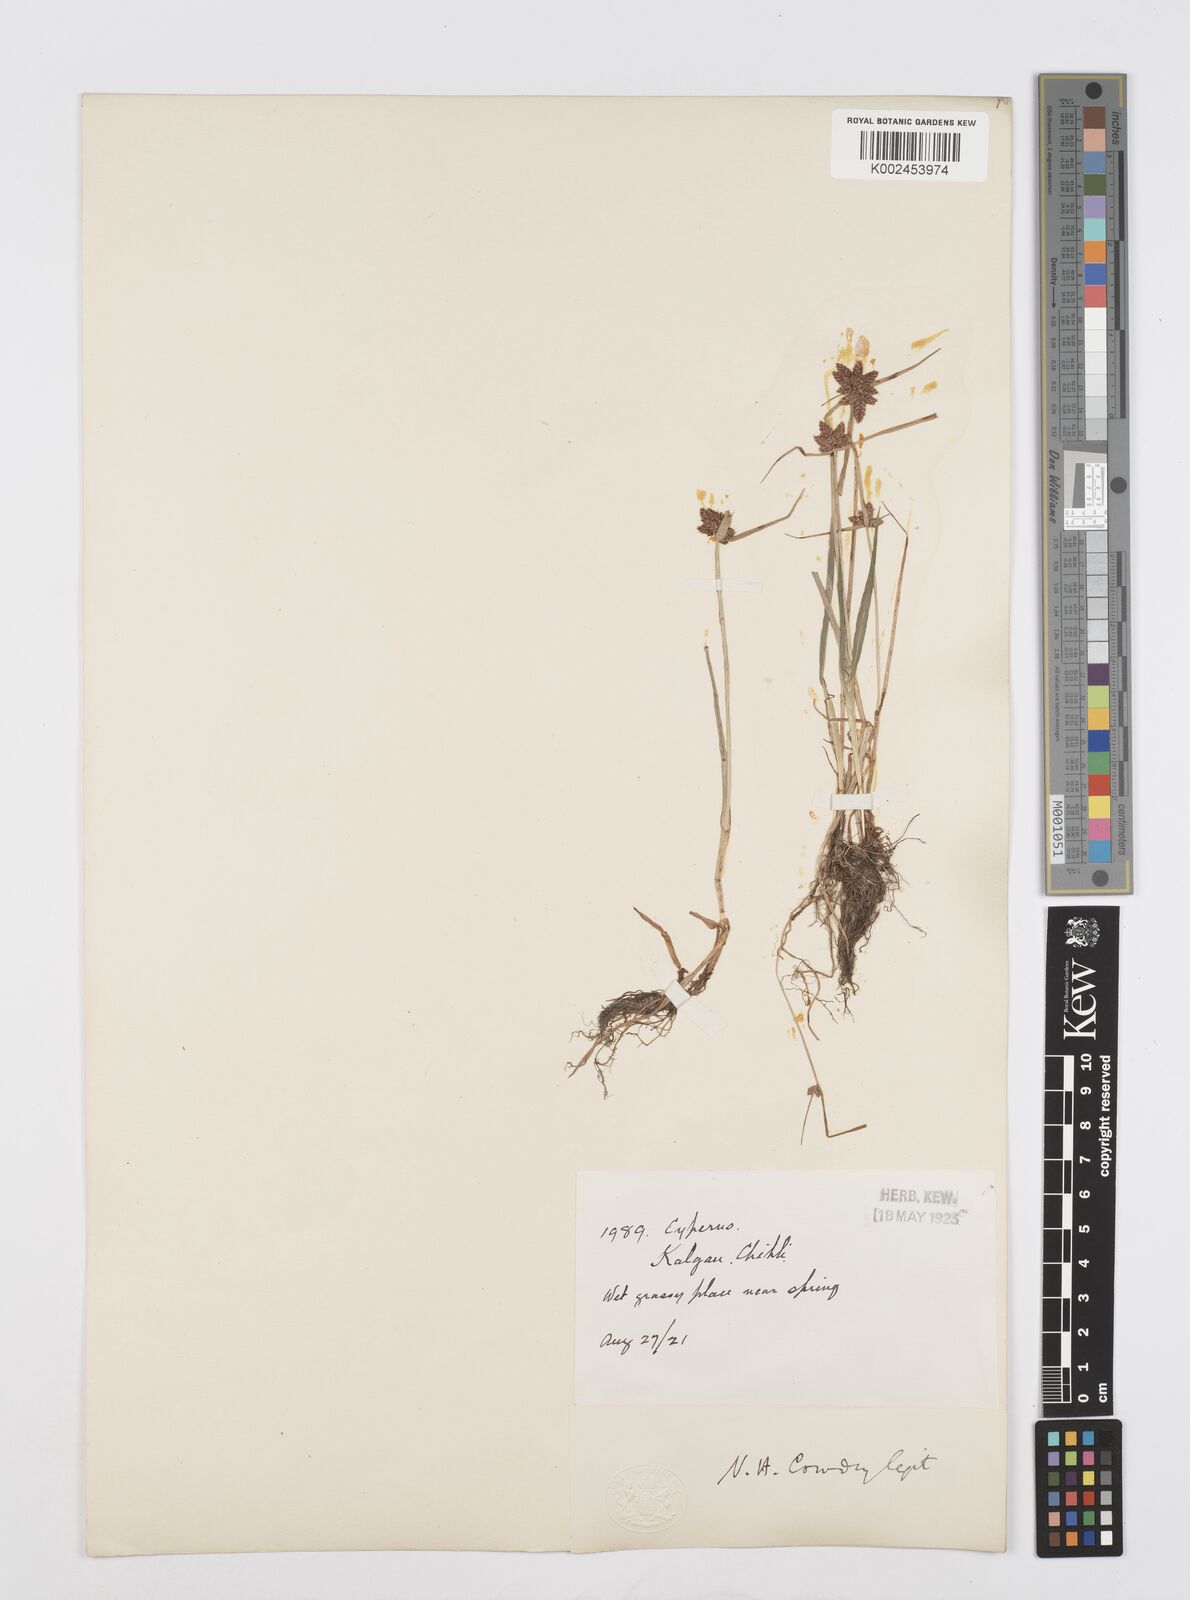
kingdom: Plantae
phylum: Tracheophyta
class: Liliopsida
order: Poales
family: Cyperaceae
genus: Cyperus
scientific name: Cyperus sanguinolentus
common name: Purpleglume flatsedge
